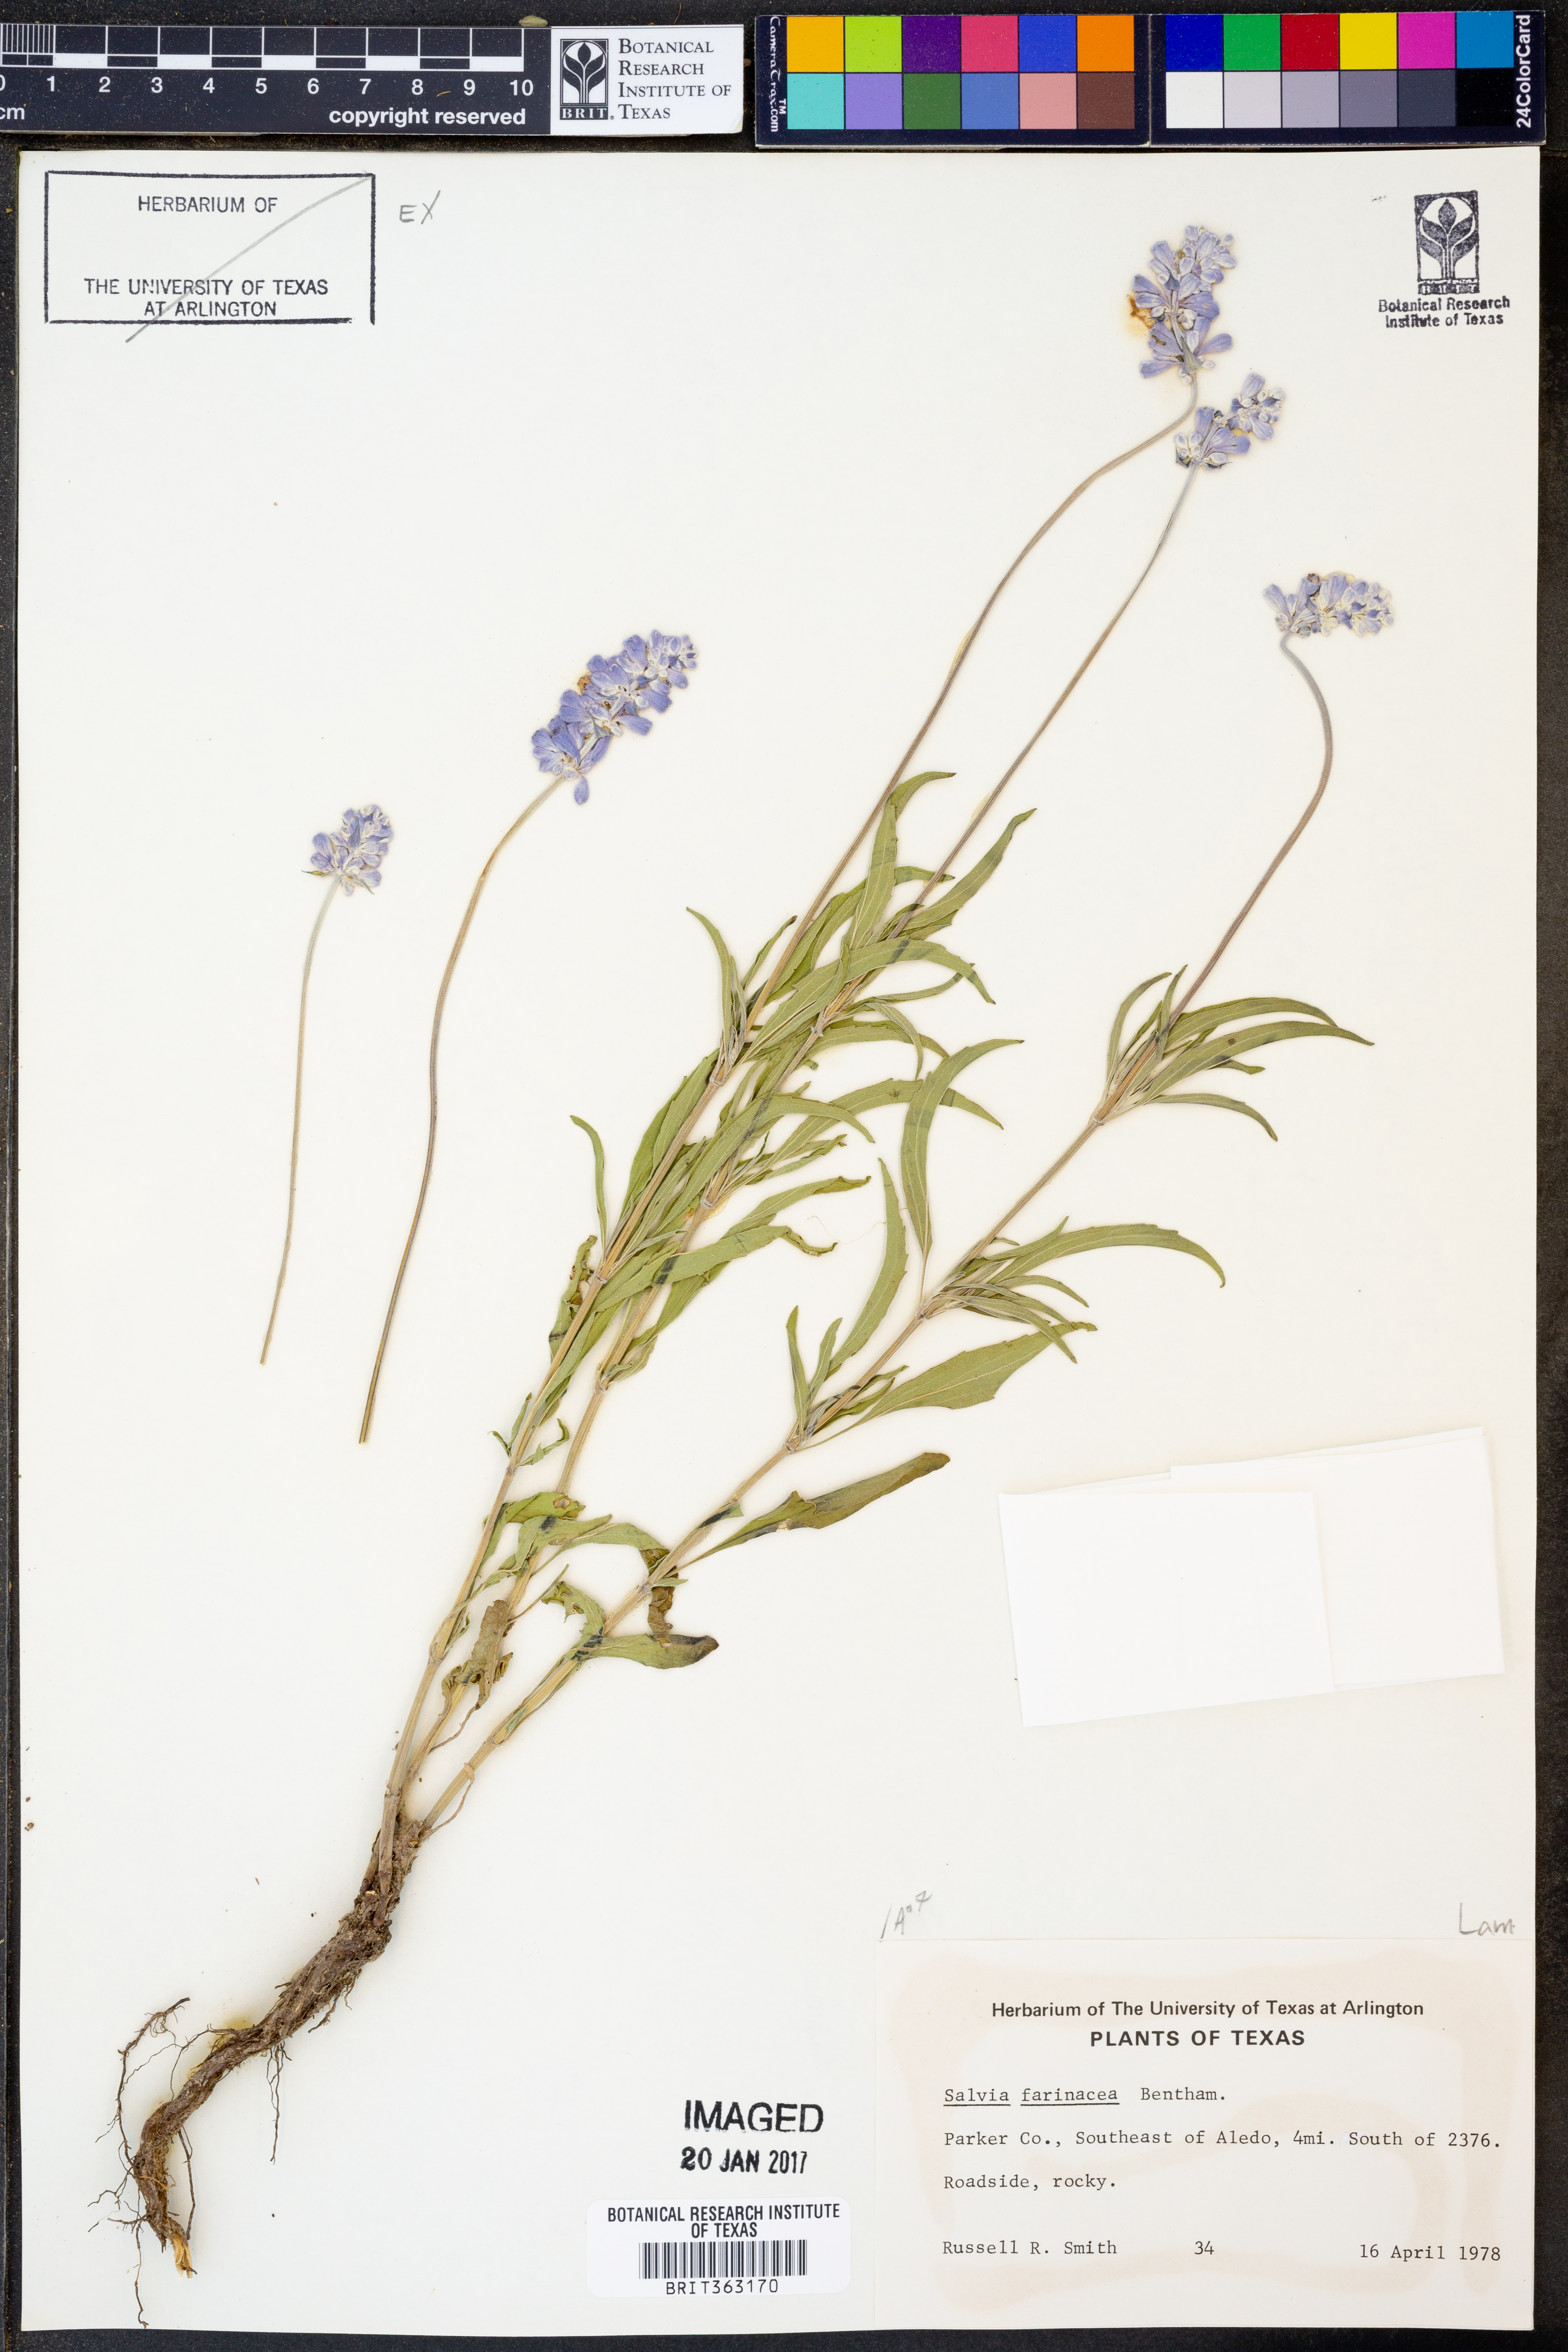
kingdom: Plantae
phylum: Tracheophyta
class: Magnoliopsida
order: Lamiales
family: Lamiaceae
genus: Salvia
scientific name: Salvia farinacea
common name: Mealy sage
